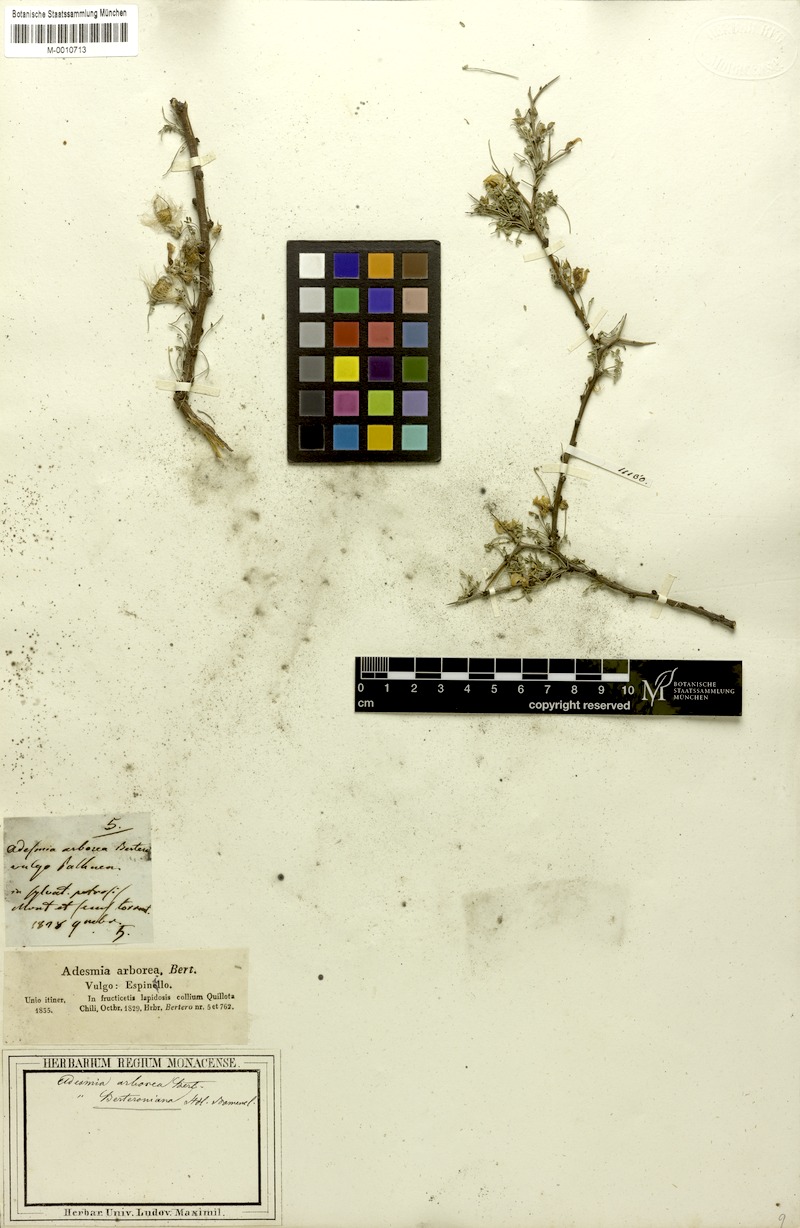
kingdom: Plantae
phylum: Tracheophyta
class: Magnoliopsida
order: Fabales
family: Fabaceae
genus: Adesmia
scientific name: Adesmia confusa
